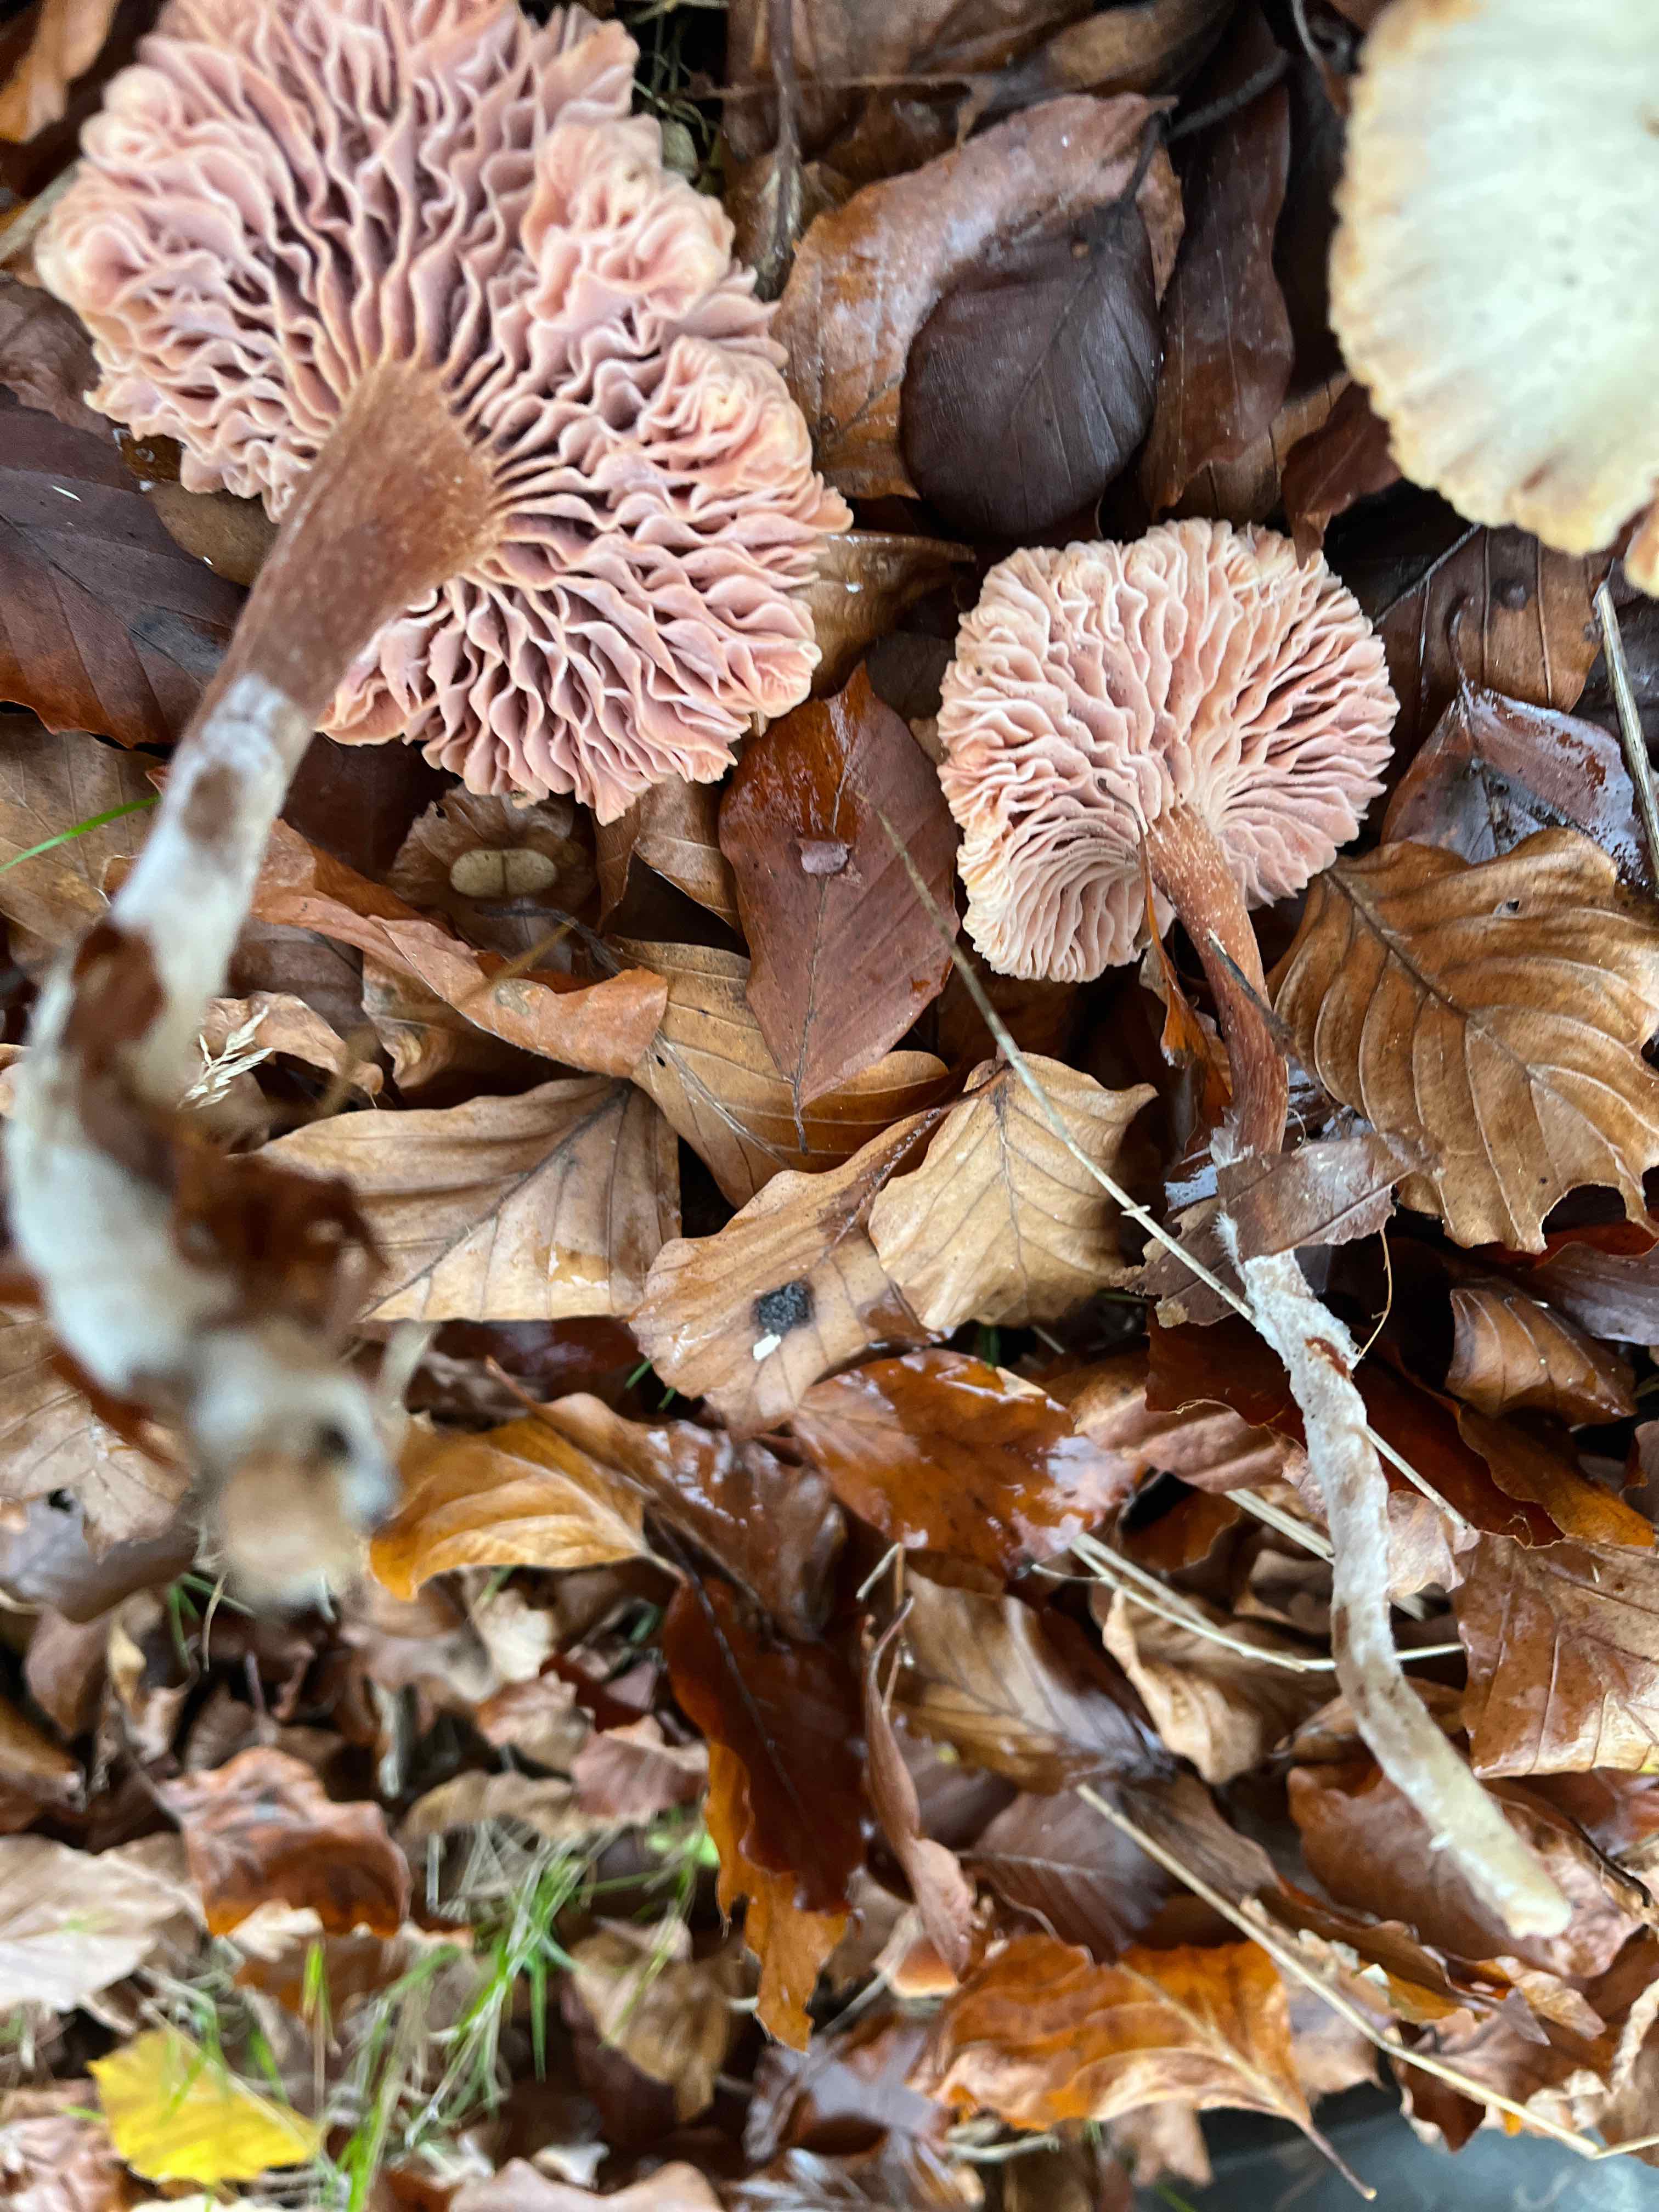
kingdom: Fungi
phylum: Basidiomycota
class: Agaricomycetes
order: Agaricales
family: Hydnangiaceae
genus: Laccaria
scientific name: Laccaria laccata
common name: rød ametysthat
